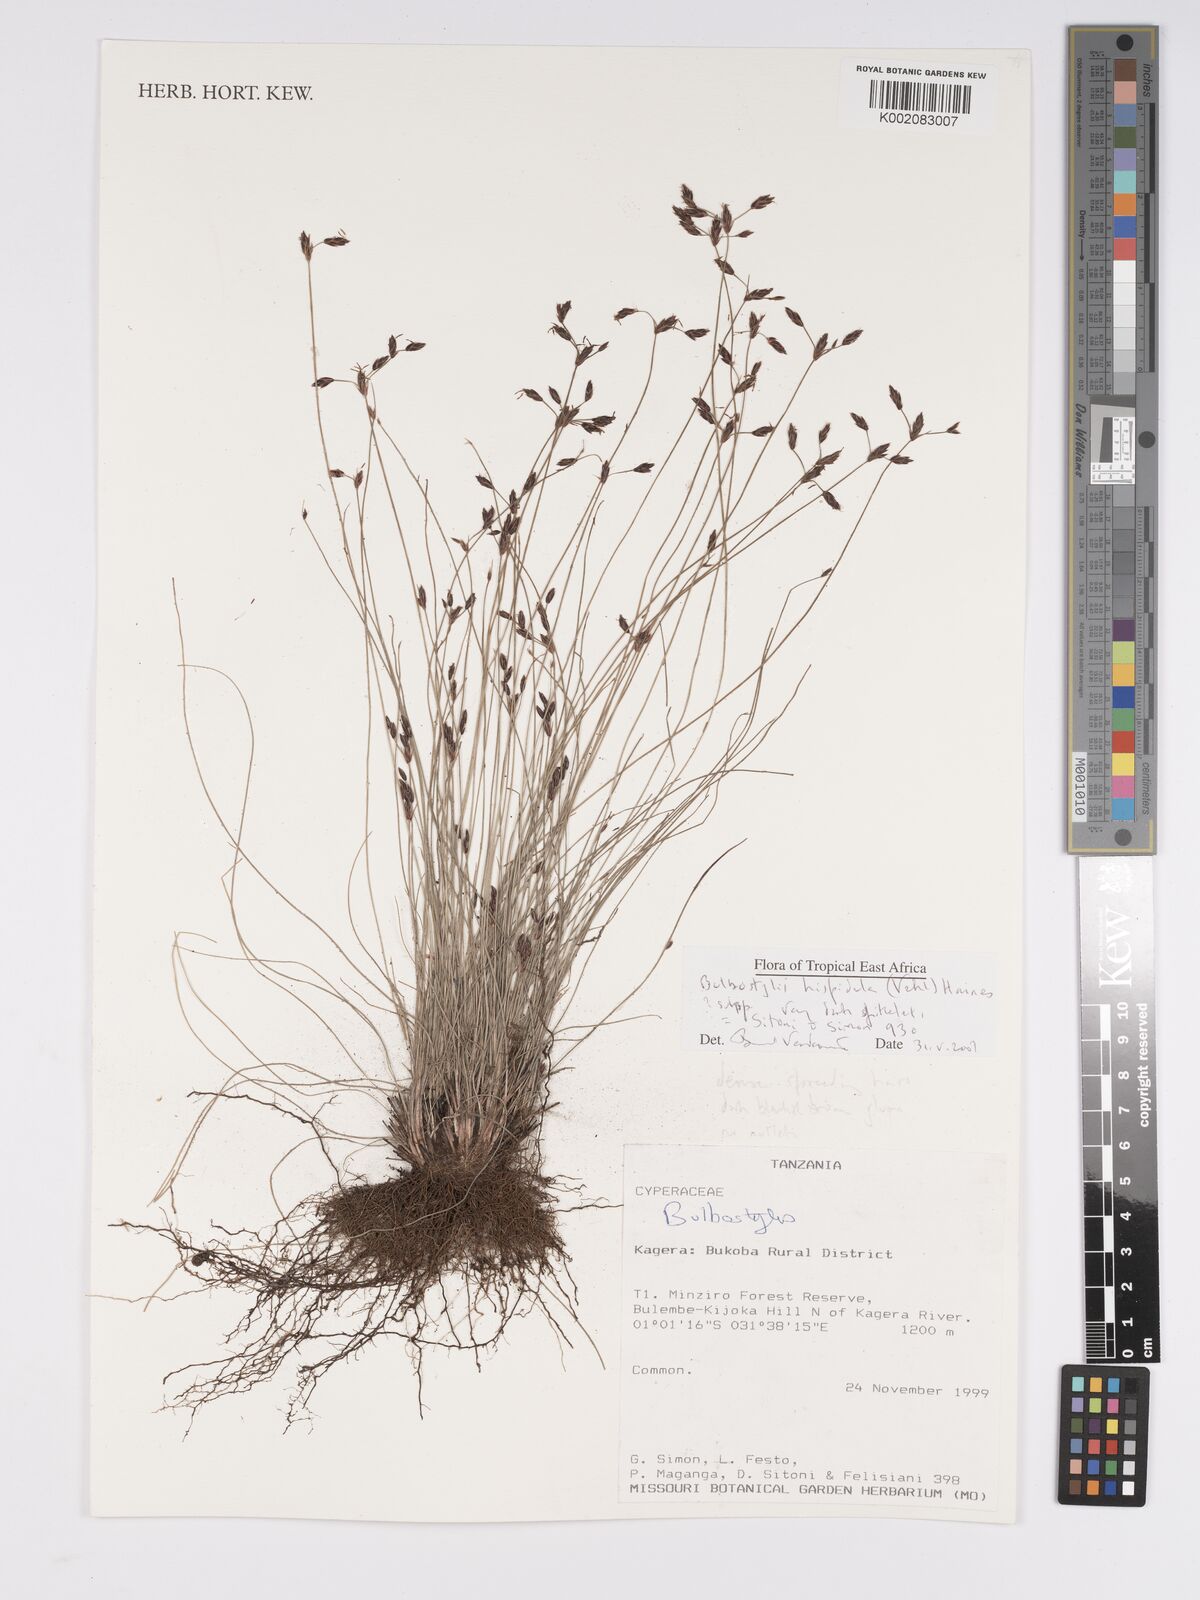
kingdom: Plantae
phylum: Tracheophyta
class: Liliopsida
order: Poales
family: Cyperaceae
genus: Bulbostylis
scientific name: Bulbostylis hispidula
